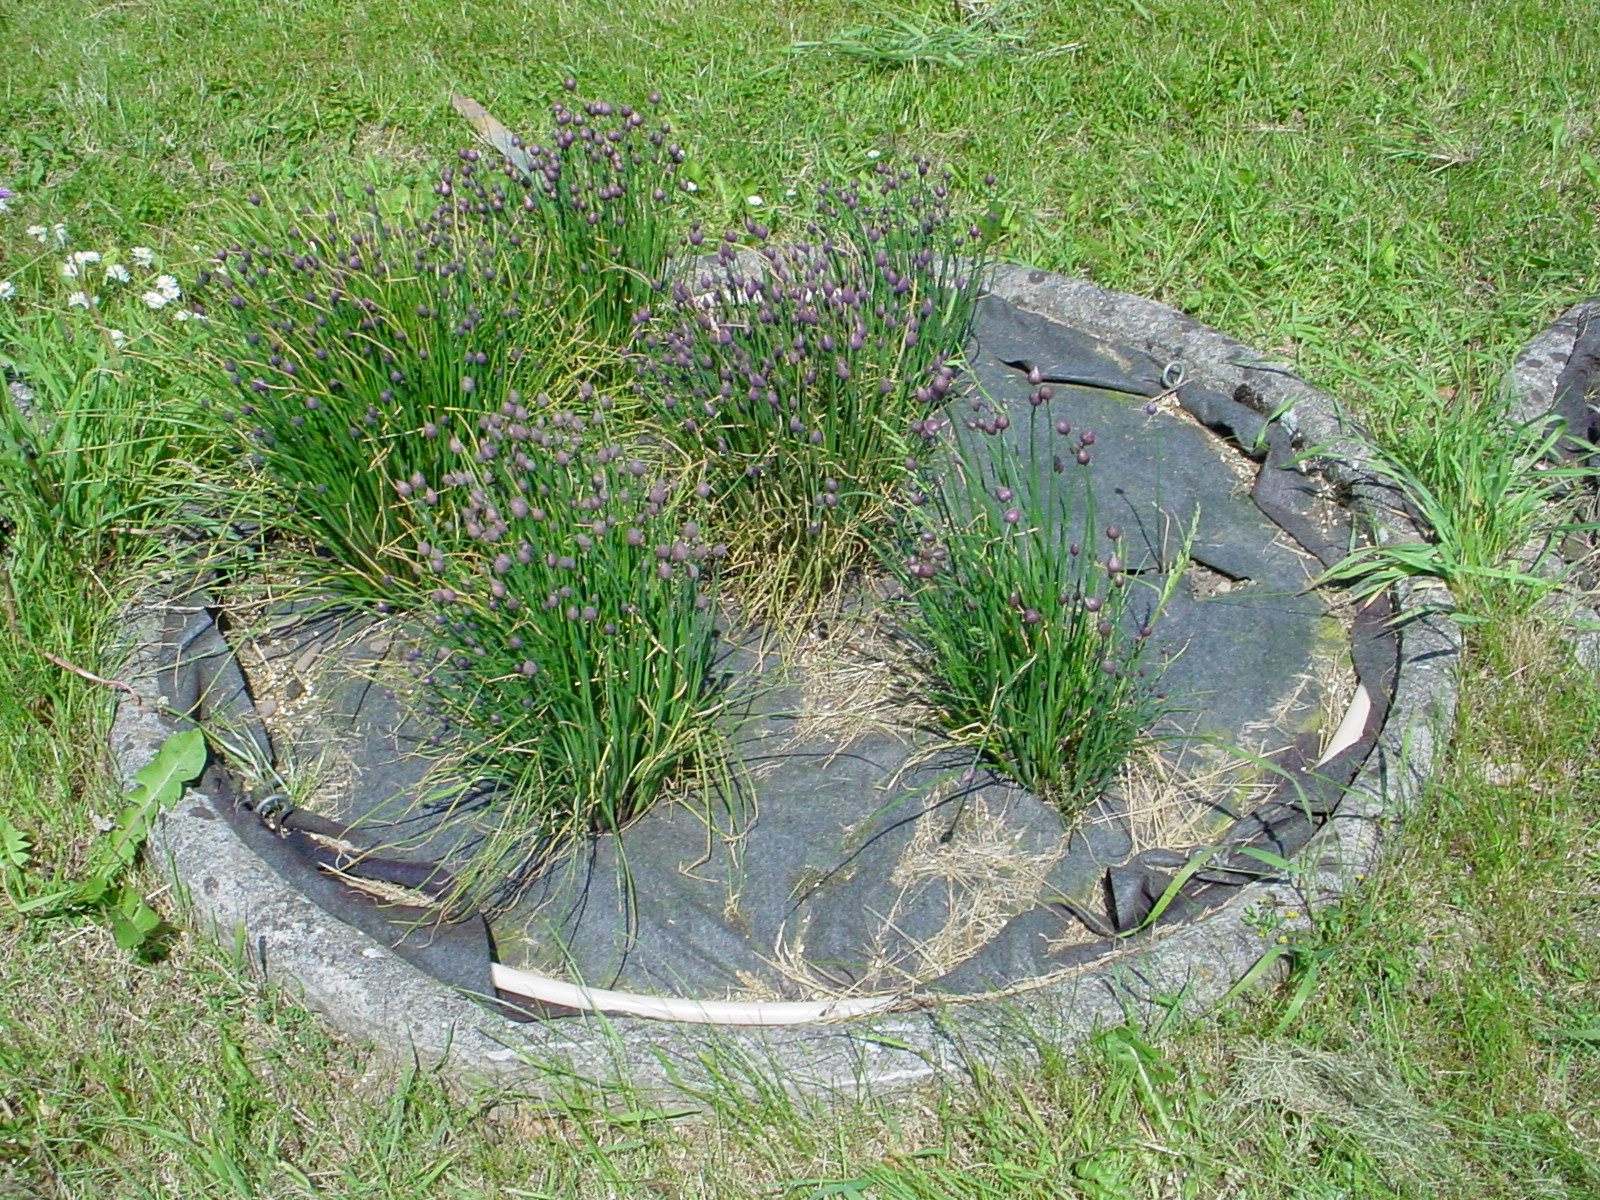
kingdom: Plantae
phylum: Tracheophyta
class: Liliopsida
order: Asparagales
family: Amaryllidaceae
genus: Allium
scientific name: Allium schoenoprasum
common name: Chives
